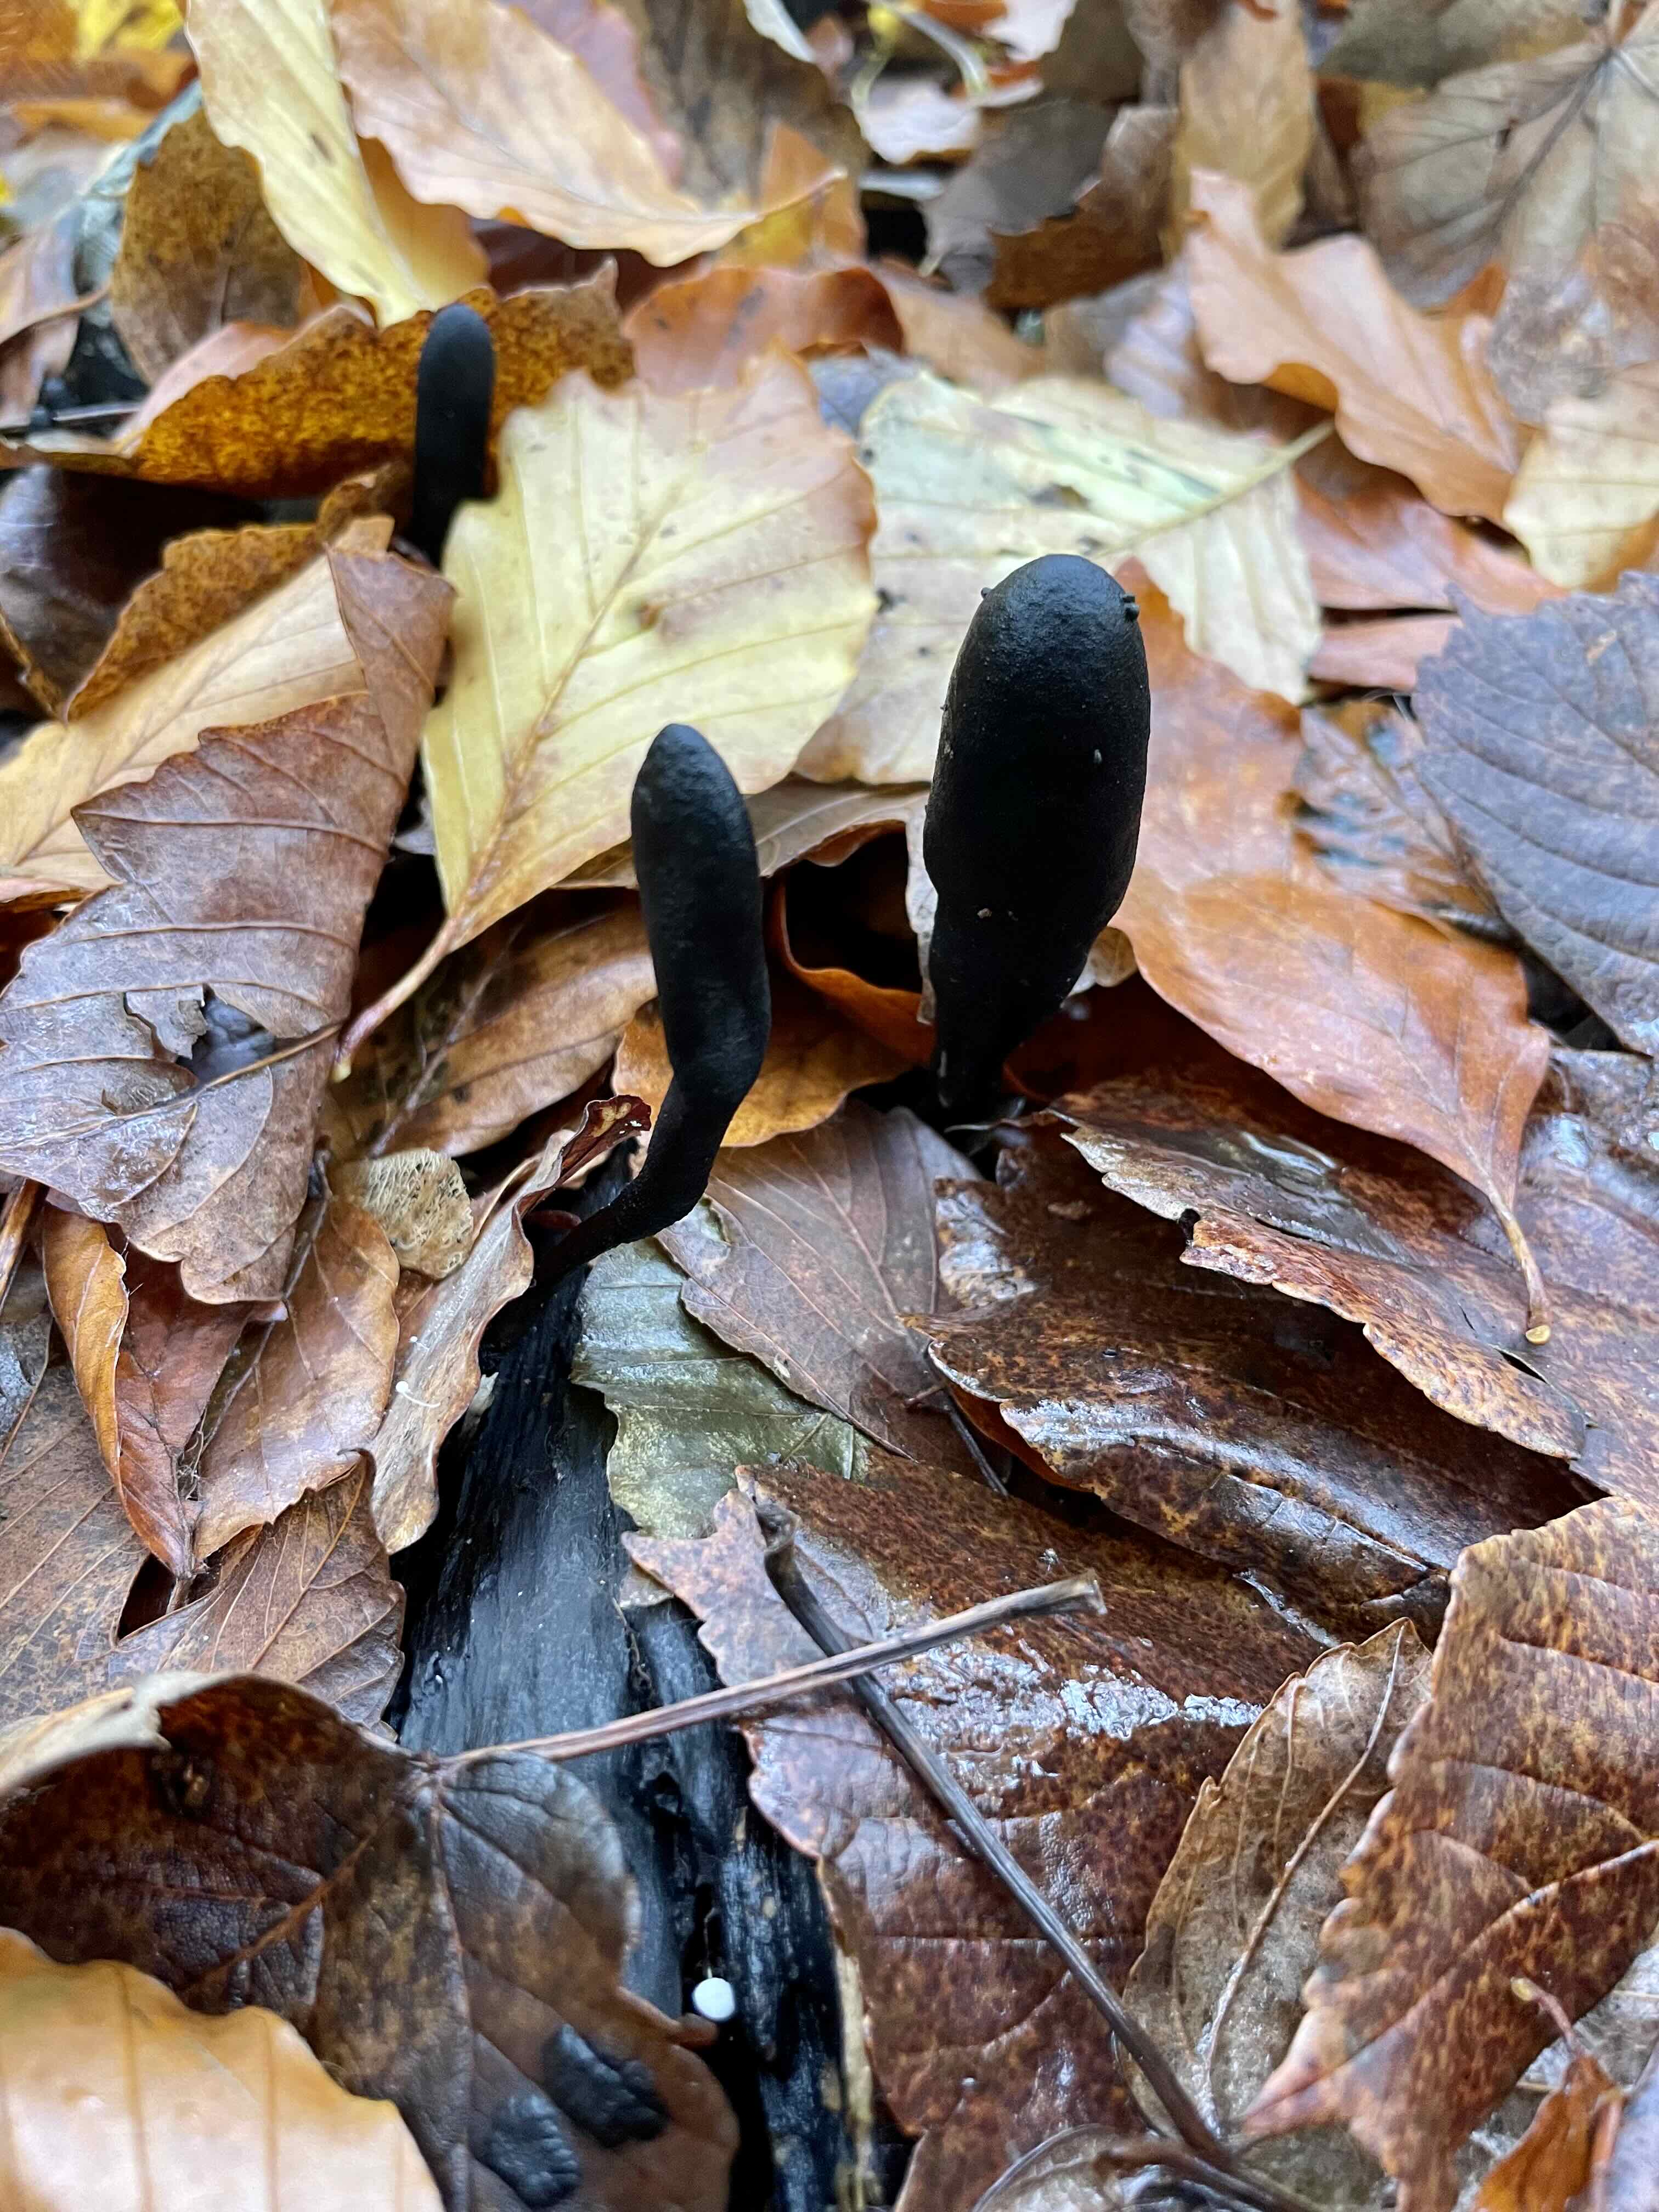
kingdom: Fungi
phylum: Ascomycota
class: Sordariomycetes
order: Xylariales
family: Xylariaceae
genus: Xylaria
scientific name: Xylaria longipes
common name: slank stødsvamp
